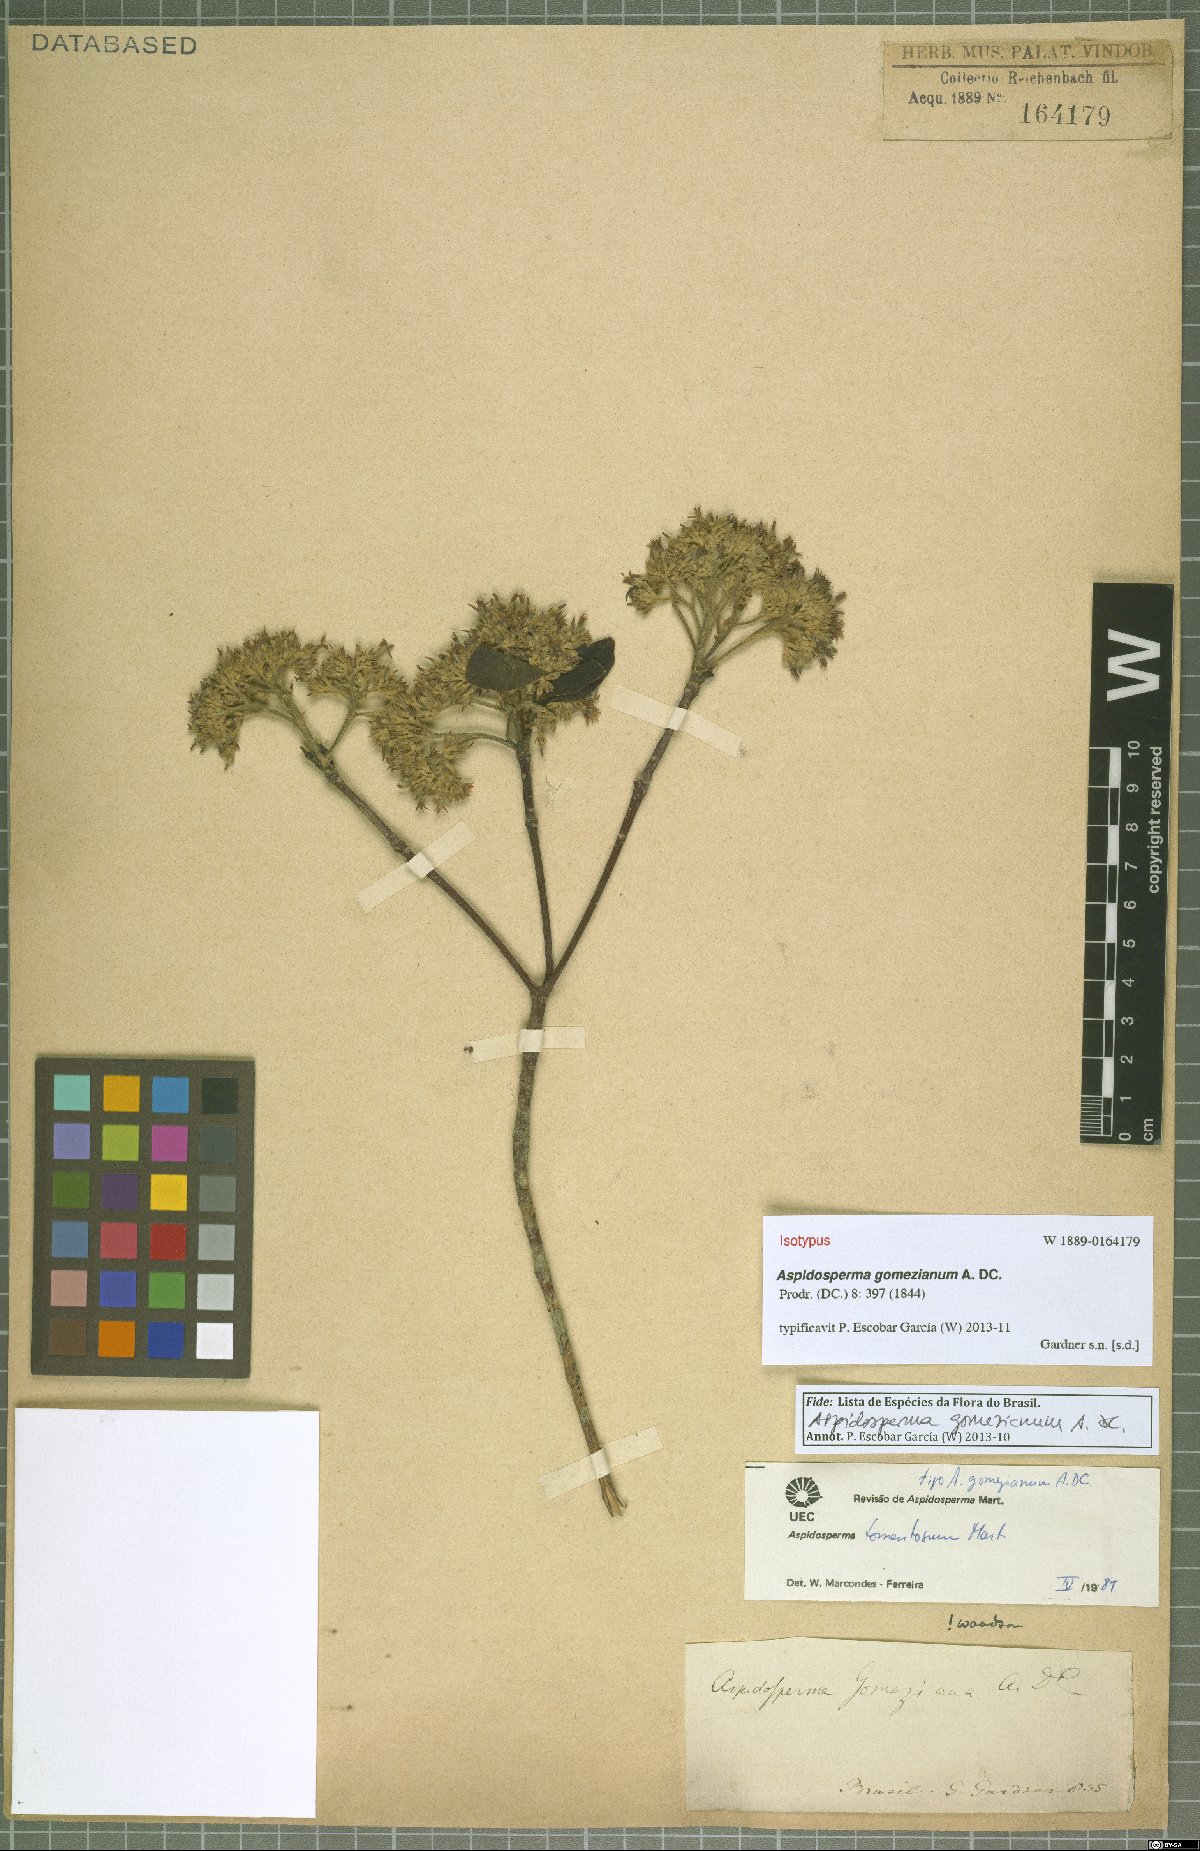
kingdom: Plantae
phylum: Tracheophyta
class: Magnoliopsida
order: Gentianales
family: Apocynaceae
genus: Aspidosperma
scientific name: Aspidosperma gomezianum
